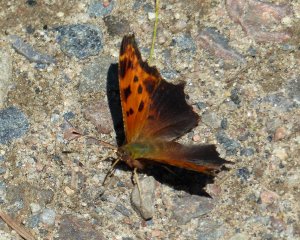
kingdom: Animalia
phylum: Arthropoda
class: Insecta
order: Lepidoptera
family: Nymphalidae
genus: Polygonia
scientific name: Polygonia comma
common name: Eastern Comma
